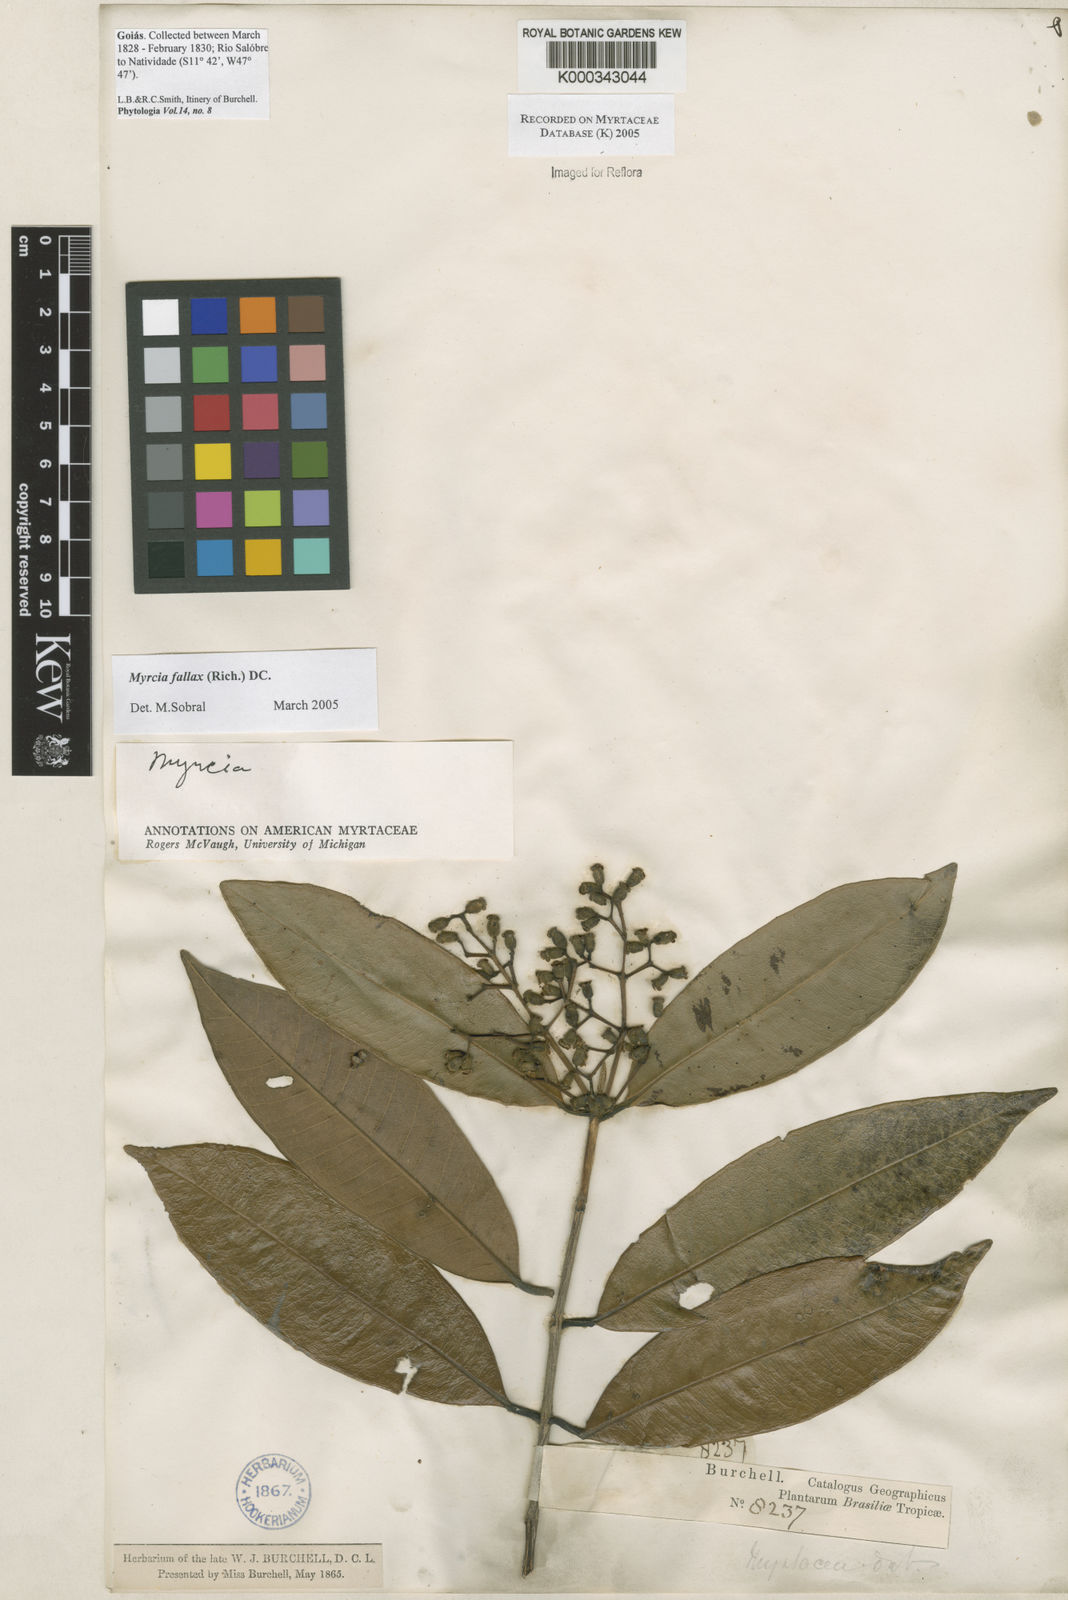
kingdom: Plantae
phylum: Tracheophyta
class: Magnoliopsida
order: Myrtales
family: Myrtaceae
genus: Myrcia
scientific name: Myrcia splendens
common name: Surinam cherry
